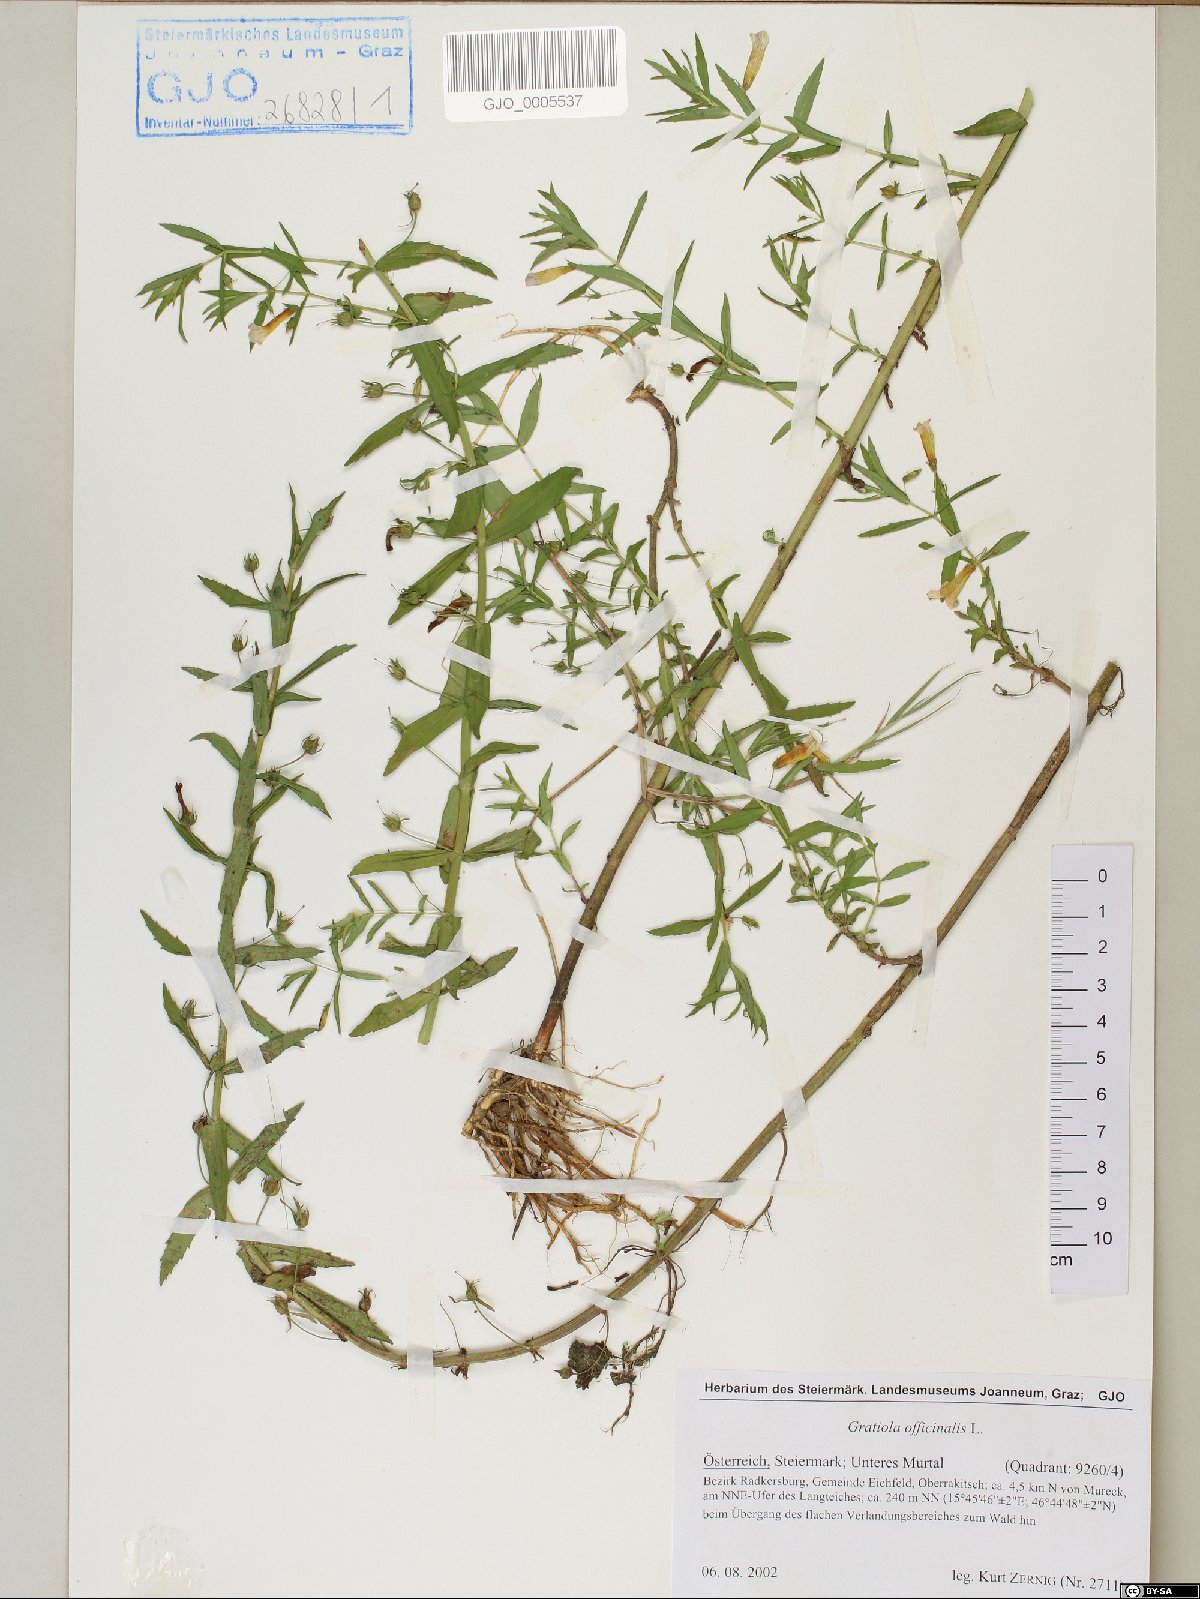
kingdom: Plantae
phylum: Tracheophyta
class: Magnoliopsida
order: Lamiales
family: Plantaginaceae
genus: Gratiola
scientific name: Gratiola officinalis
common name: Gratiola
